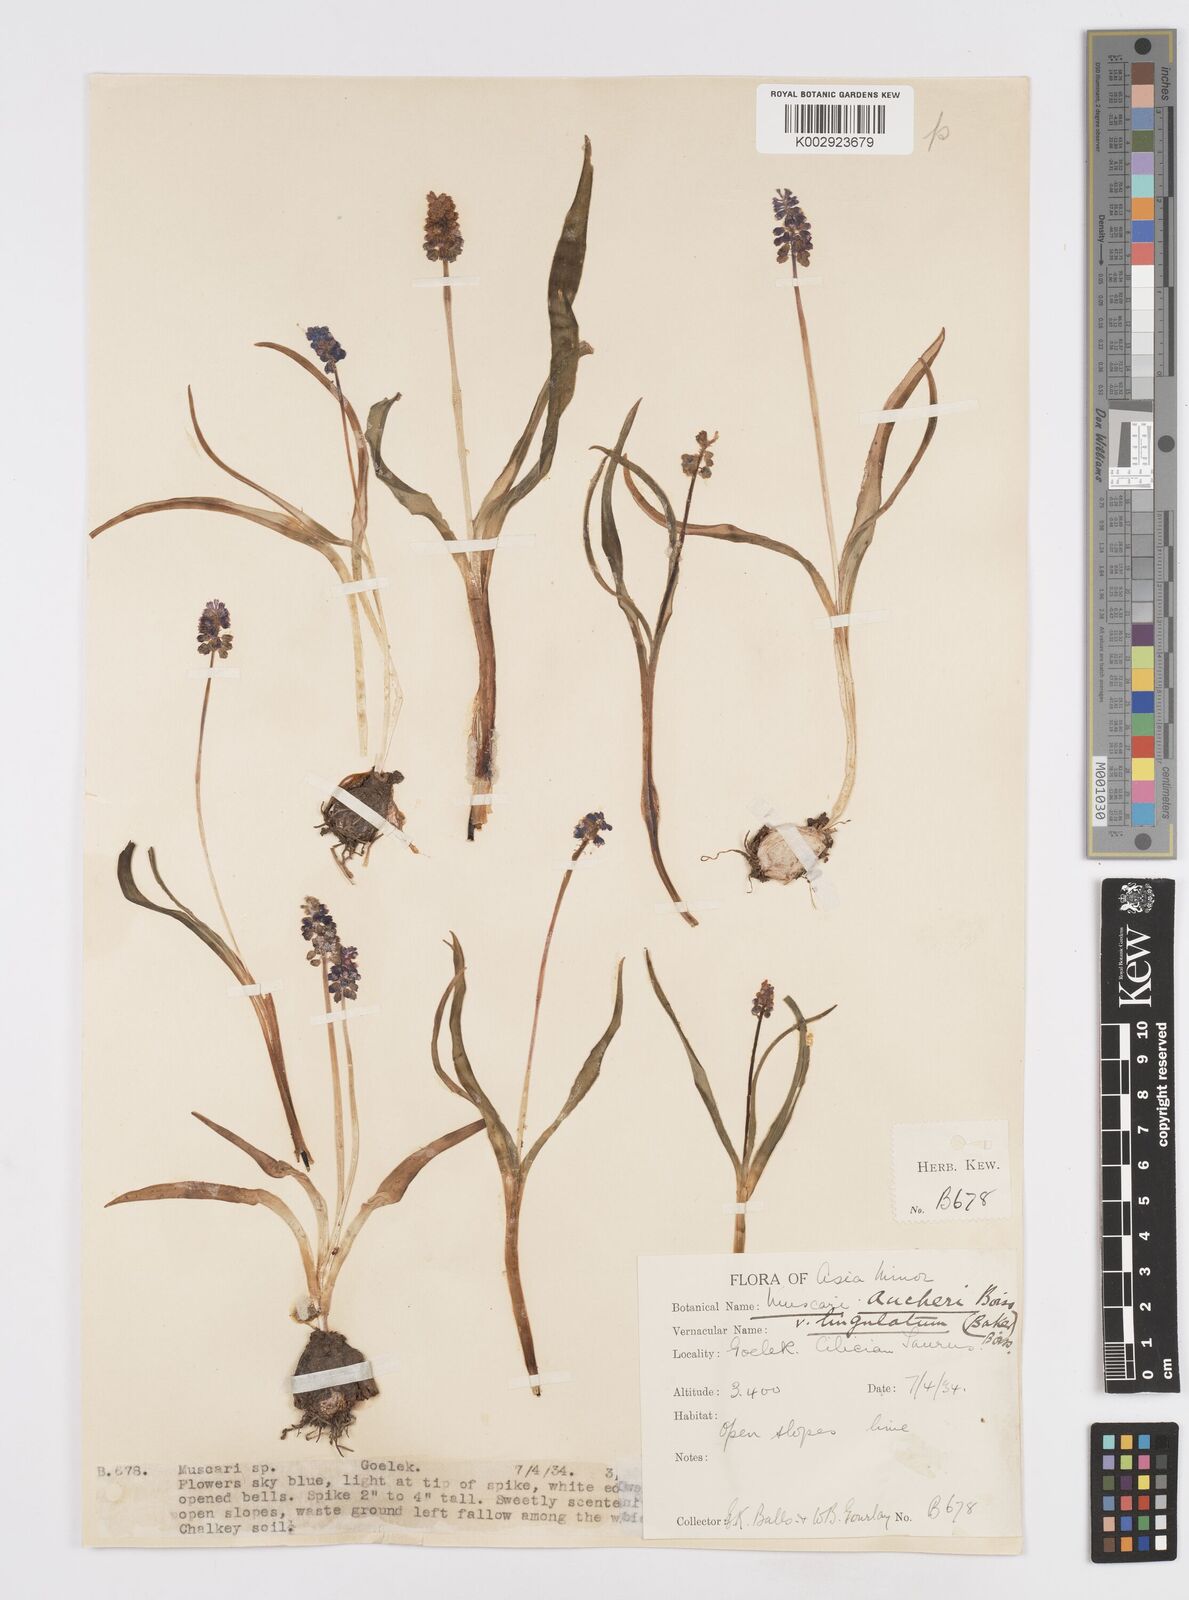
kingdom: Plantae
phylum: Tracheophyta
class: Liliopsida
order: Asparagales
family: Asparagaceae
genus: Muscari
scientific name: Muscari aucheri
